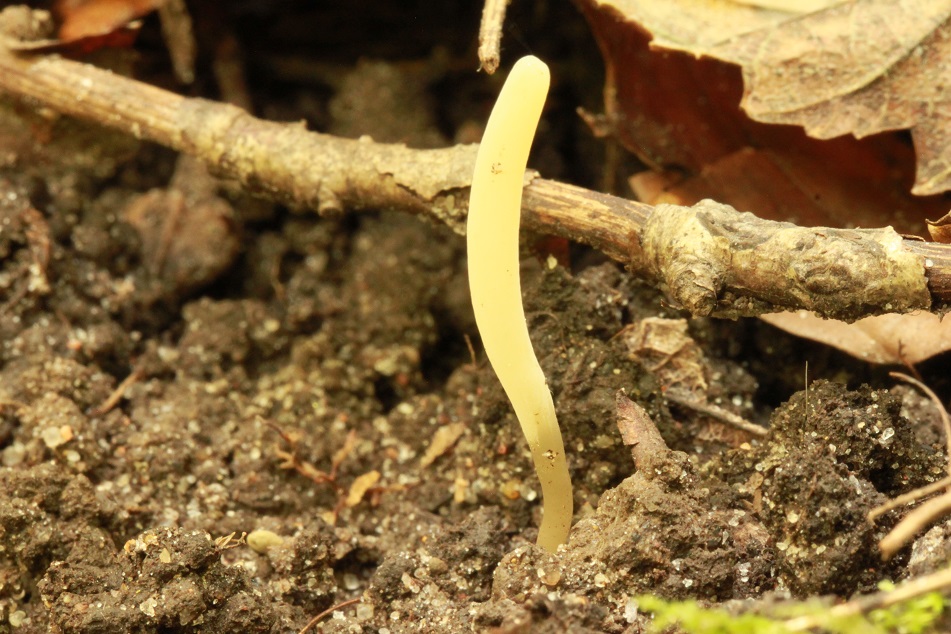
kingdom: Fungi
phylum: Basidiomycota
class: Agaricomycetes
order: Agaricales
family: Clavariaceae
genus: Clavaria
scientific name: Clavaria falcata
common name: hvid køllesvamp
